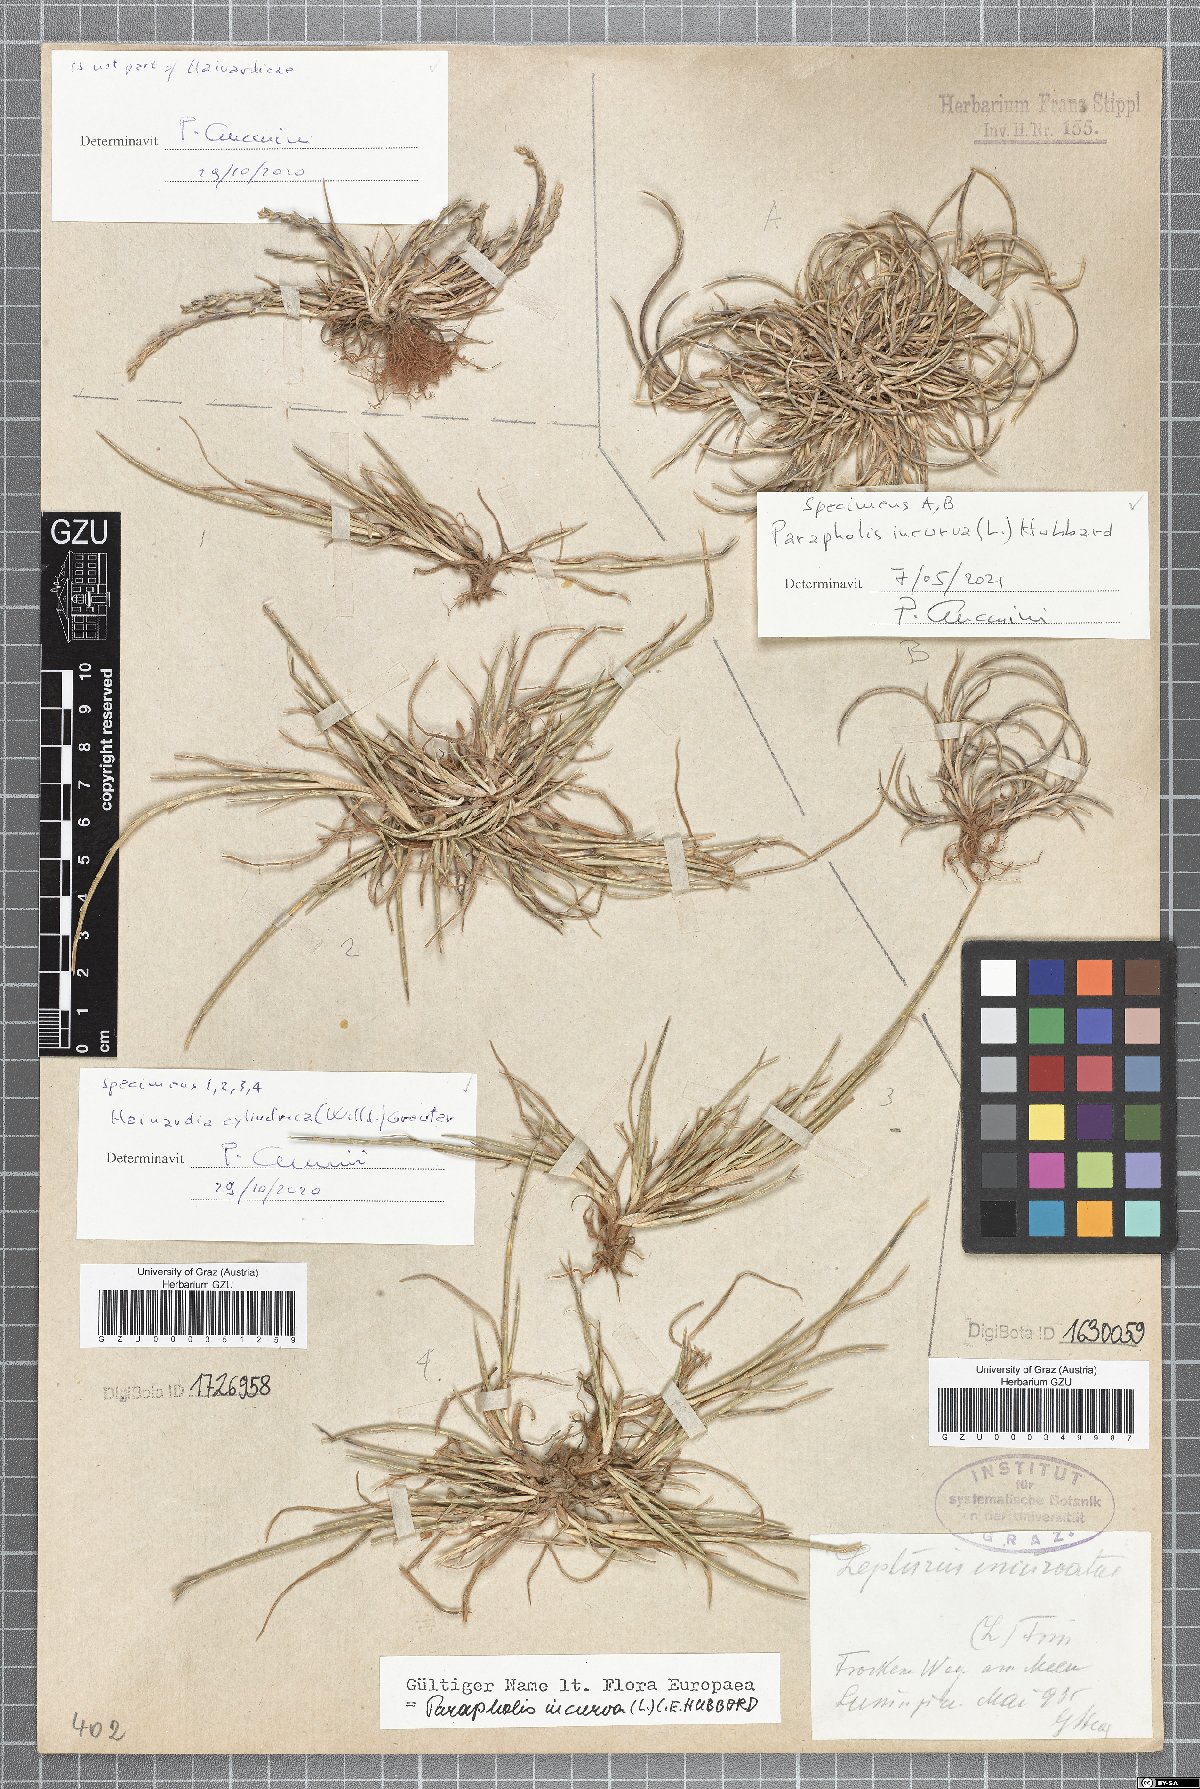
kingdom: Plantae
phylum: Tracheophyta
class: Liliopsida
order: Poales
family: Poaceae
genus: Parapholis
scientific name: Parapholis incurva
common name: Curved sicklegrass
